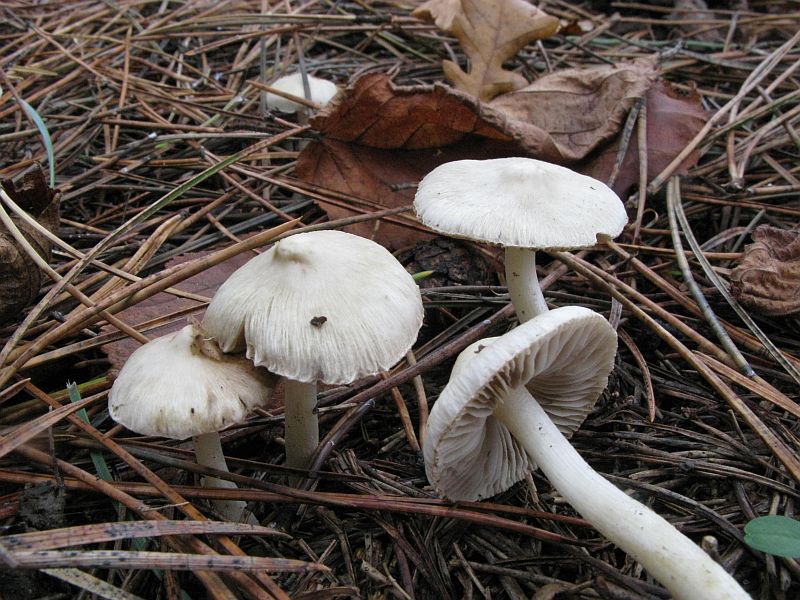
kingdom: Fungi
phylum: Basidiomycota
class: Agaricomycetes
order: Agaricales
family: Inocybaceae
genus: Inocybe
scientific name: Inocybe
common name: almindelig trævlhat
